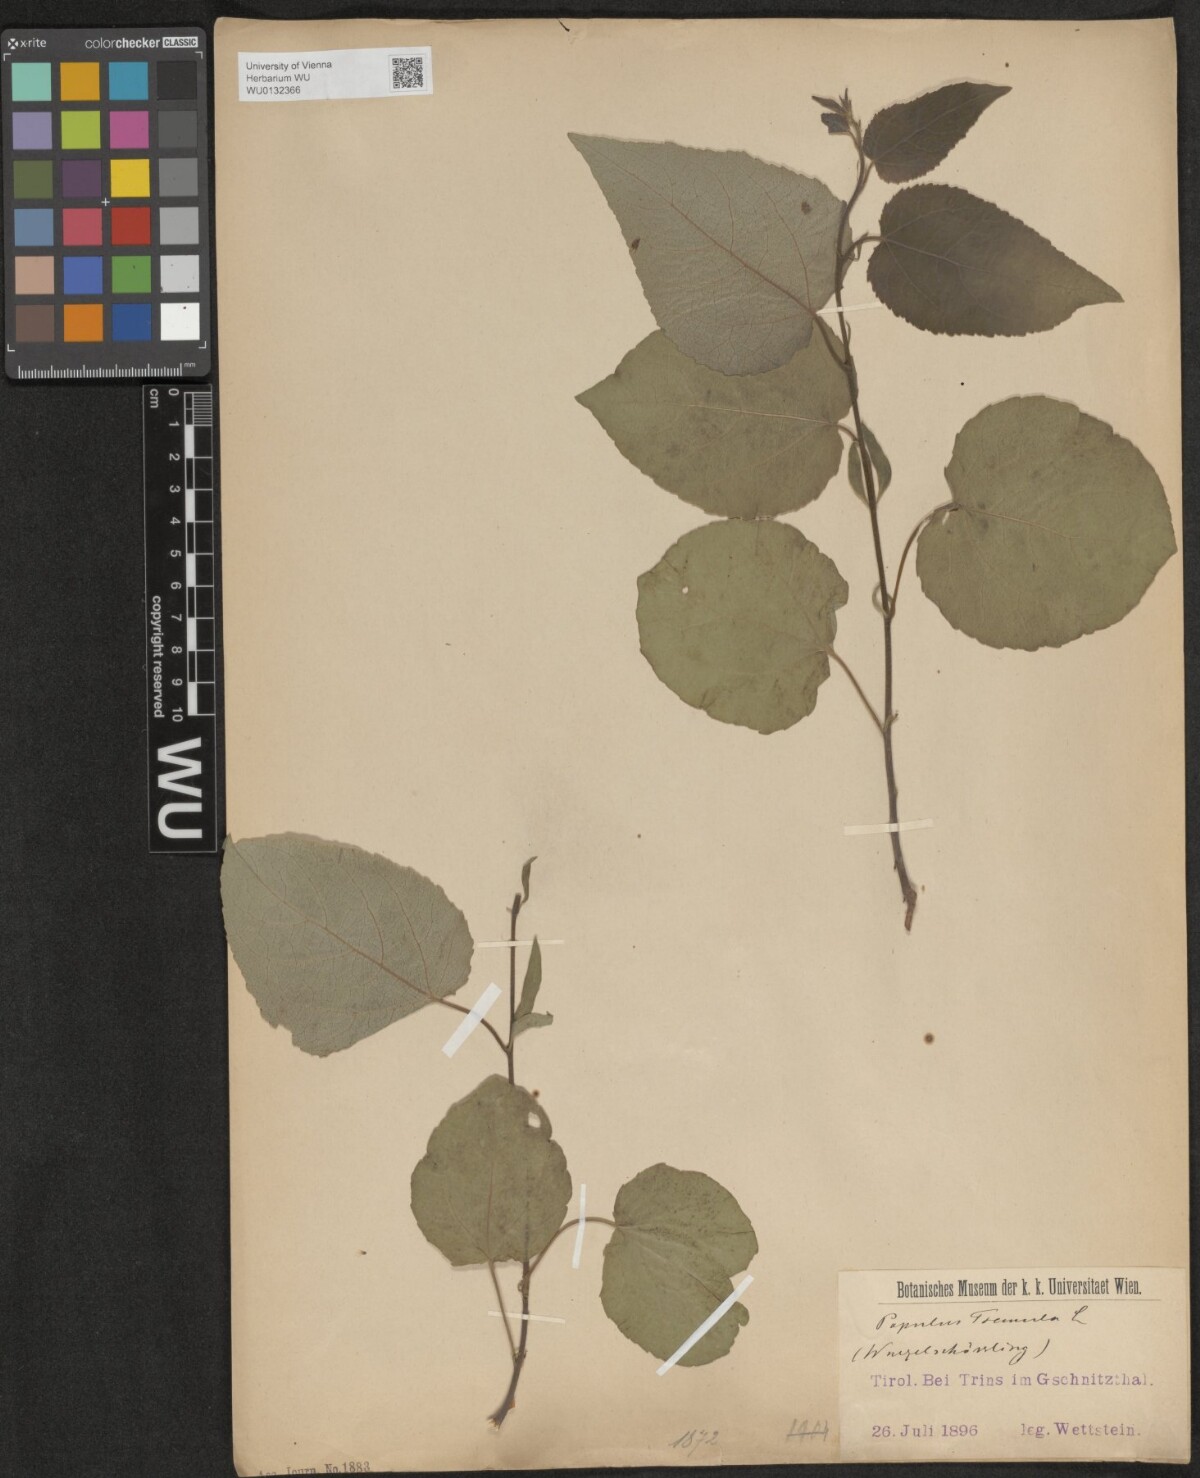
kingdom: Plantae
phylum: Tracheophyta
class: Magnoliopsida
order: Malpighiales
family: Salicaceae
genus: Populus
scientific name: Populus tremula
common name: European aspen
